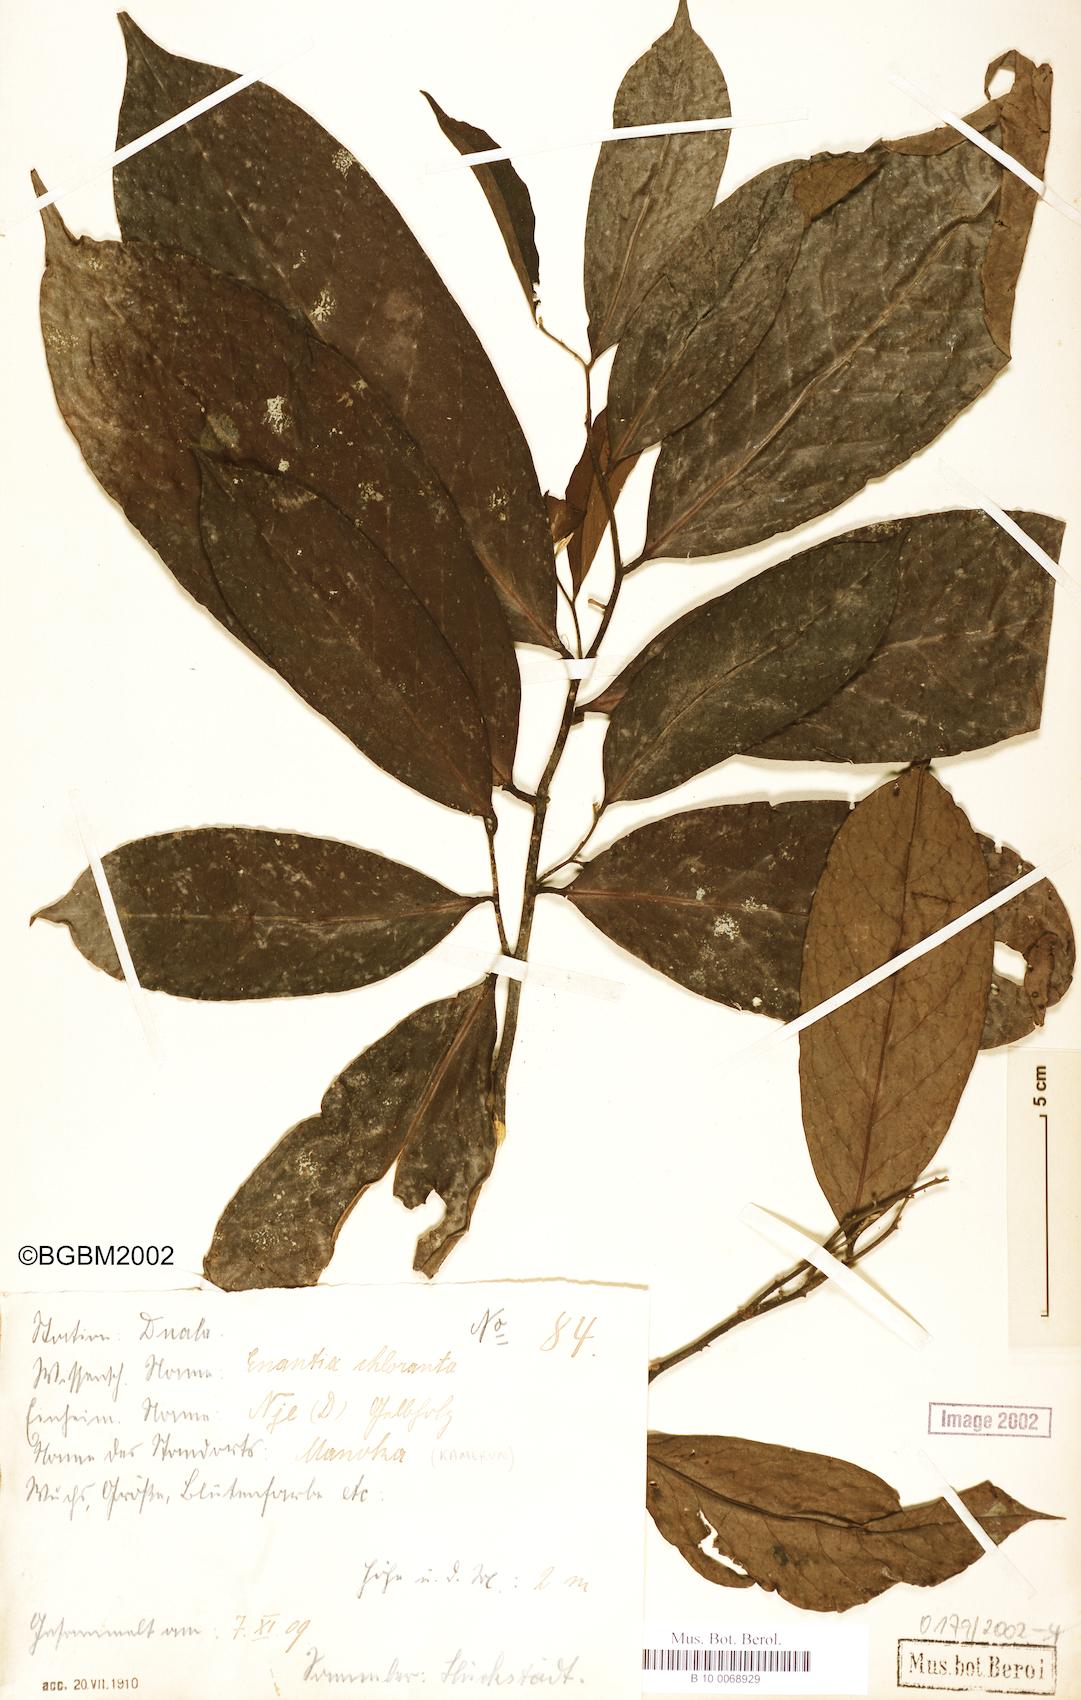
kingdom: Plantae
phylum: Tracheophyta
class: Magnoliopsida
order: Magnoliales
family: Annonaceae
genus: Annickia
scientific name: Annickia chlorantha
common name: African yellowwood
